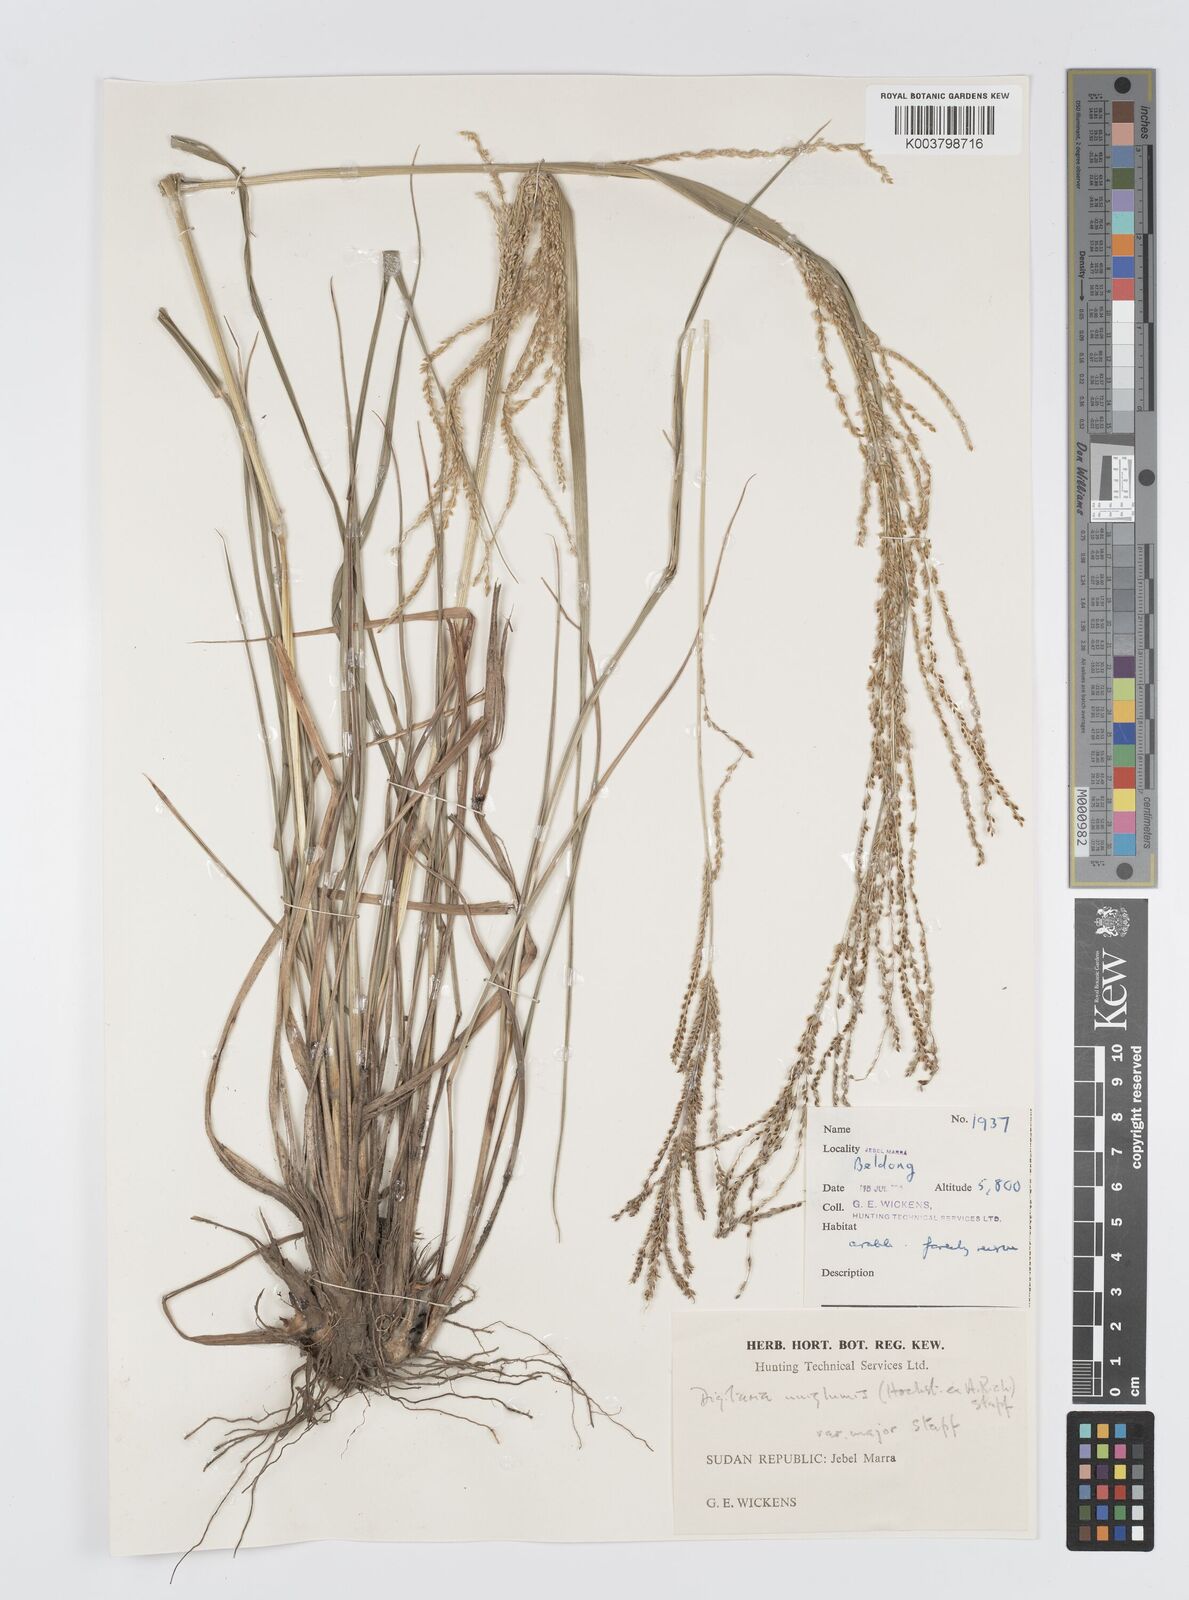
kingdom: Plantae
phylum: Tracheophyta
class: Liliopsida
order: Poales
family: Poaceae
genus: Digitaria
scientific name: Digitaria diagonalis
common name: Brown-seed finger grass
